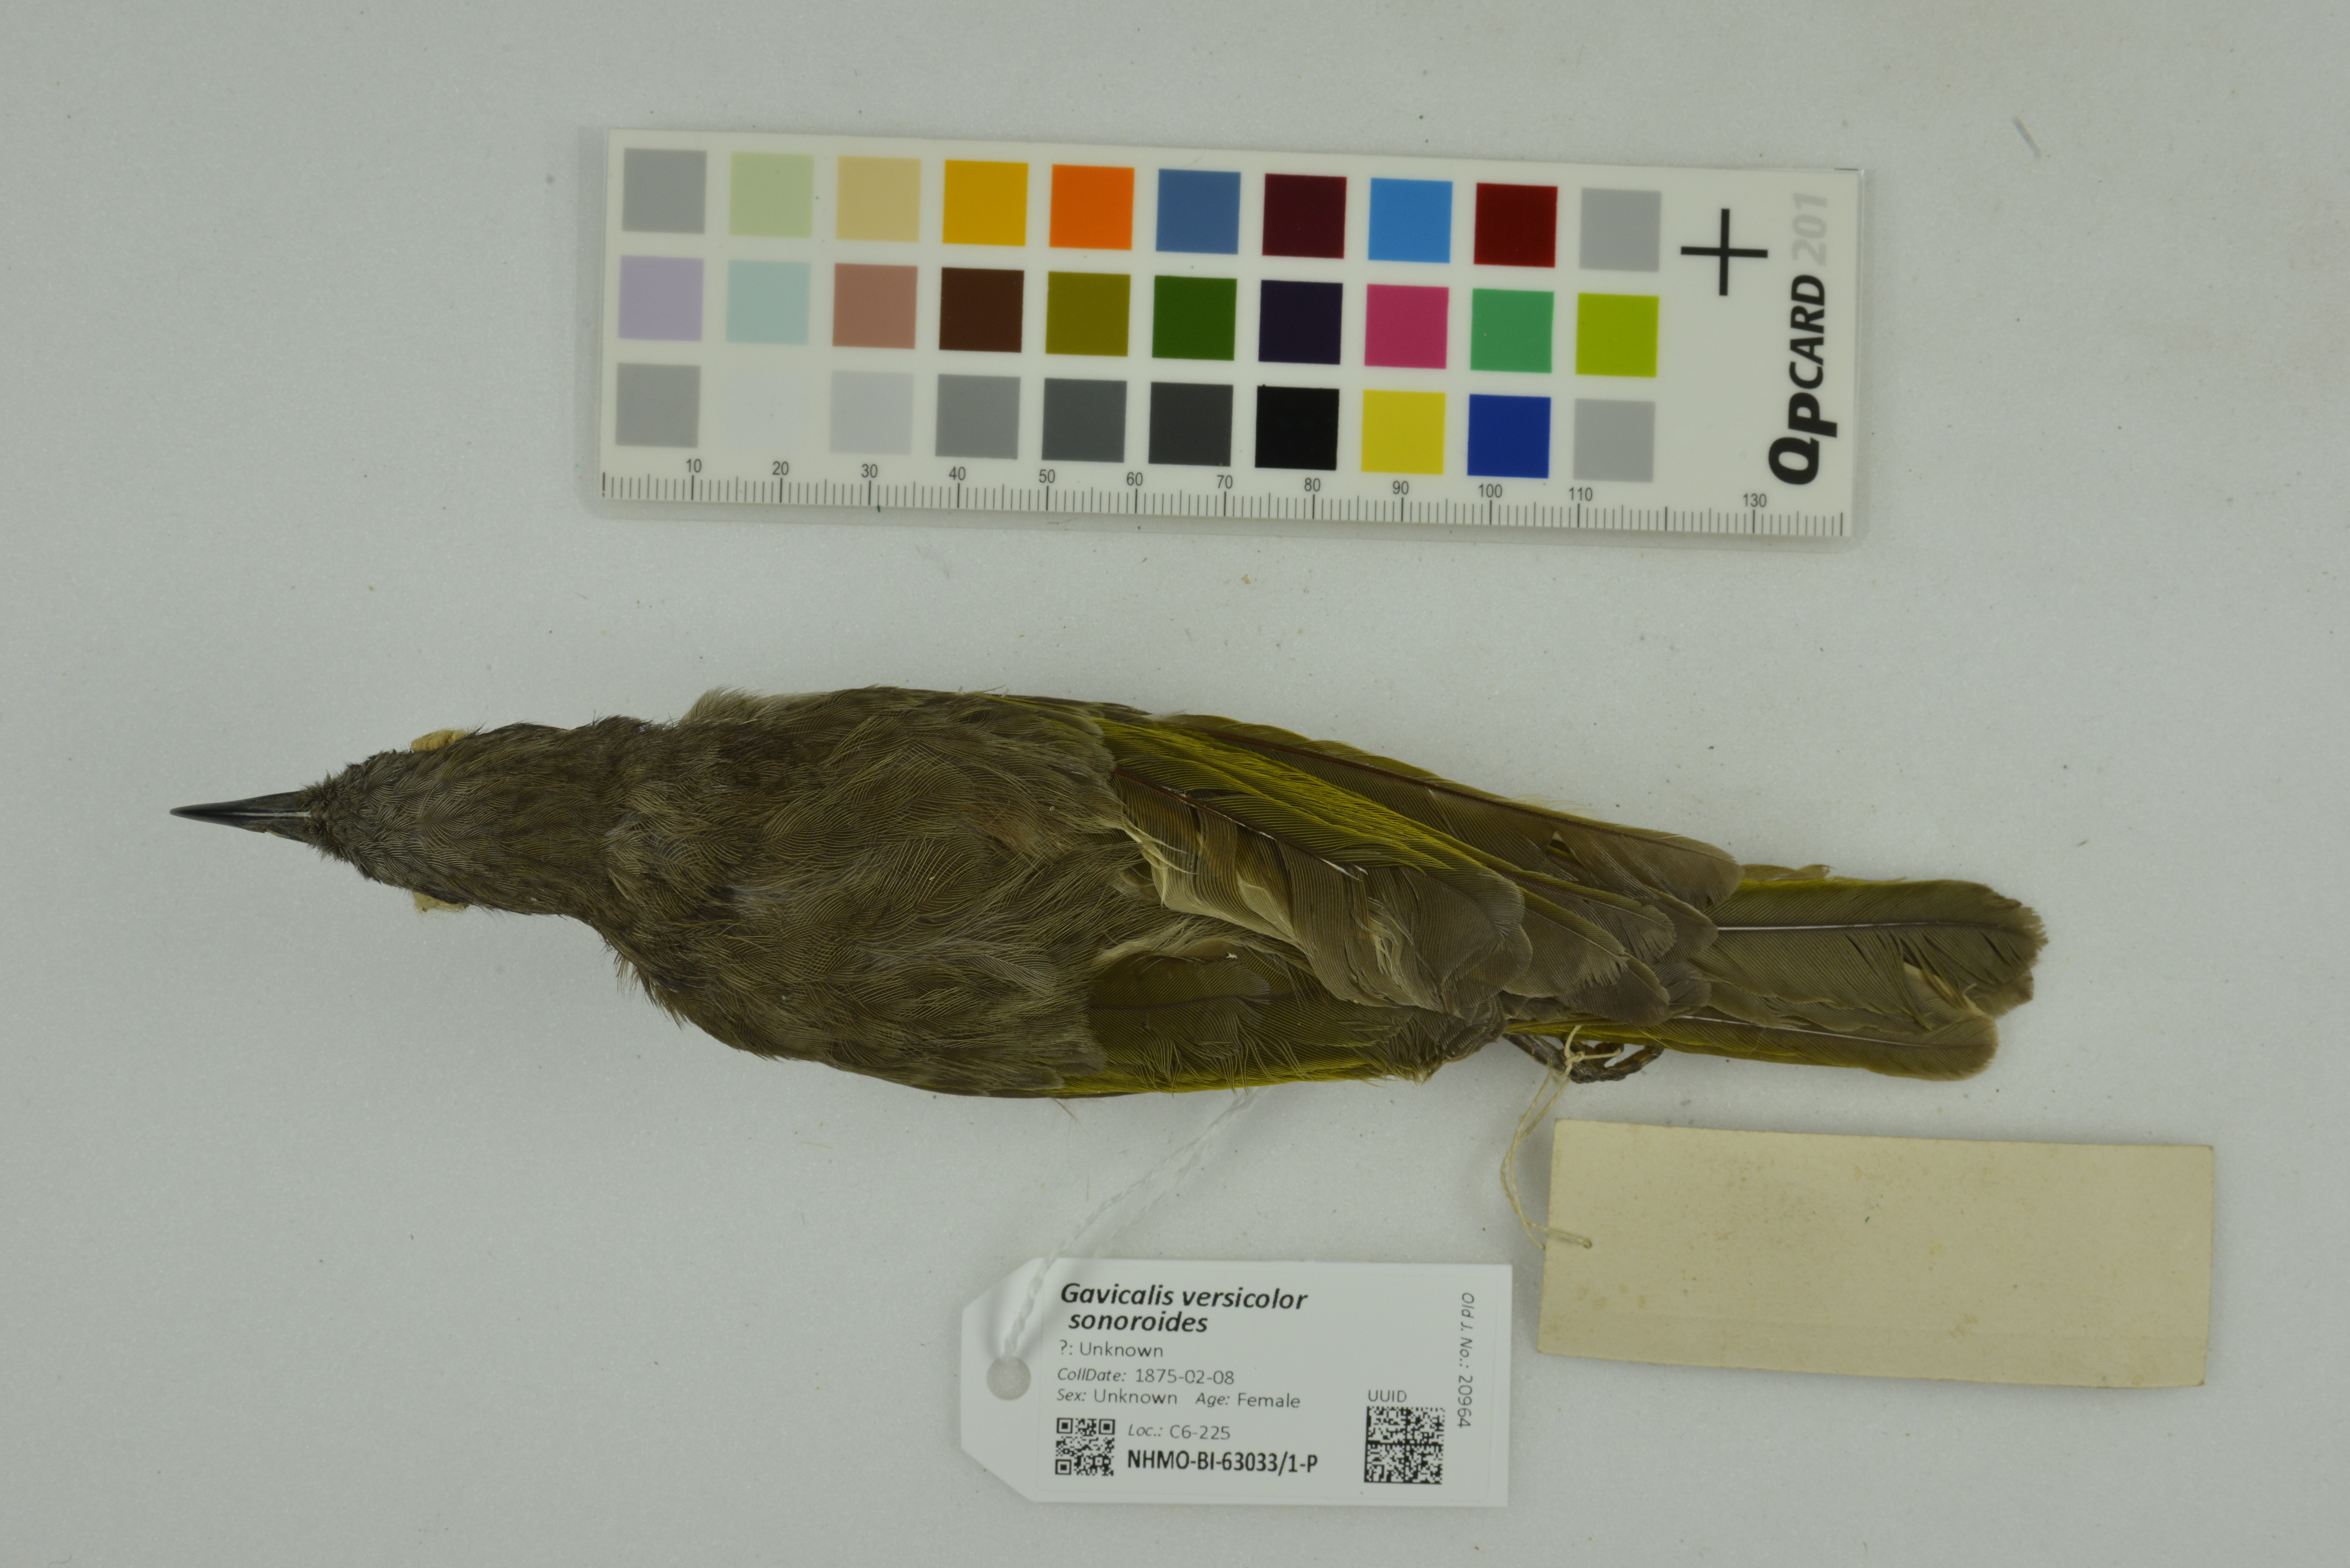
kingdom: Animalia
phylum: Chordata
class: Aves
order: Passeriformes
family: Meliphagidae
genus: Gavicalis
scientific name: Gavicalis versicolor
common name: Varied honeyeater
